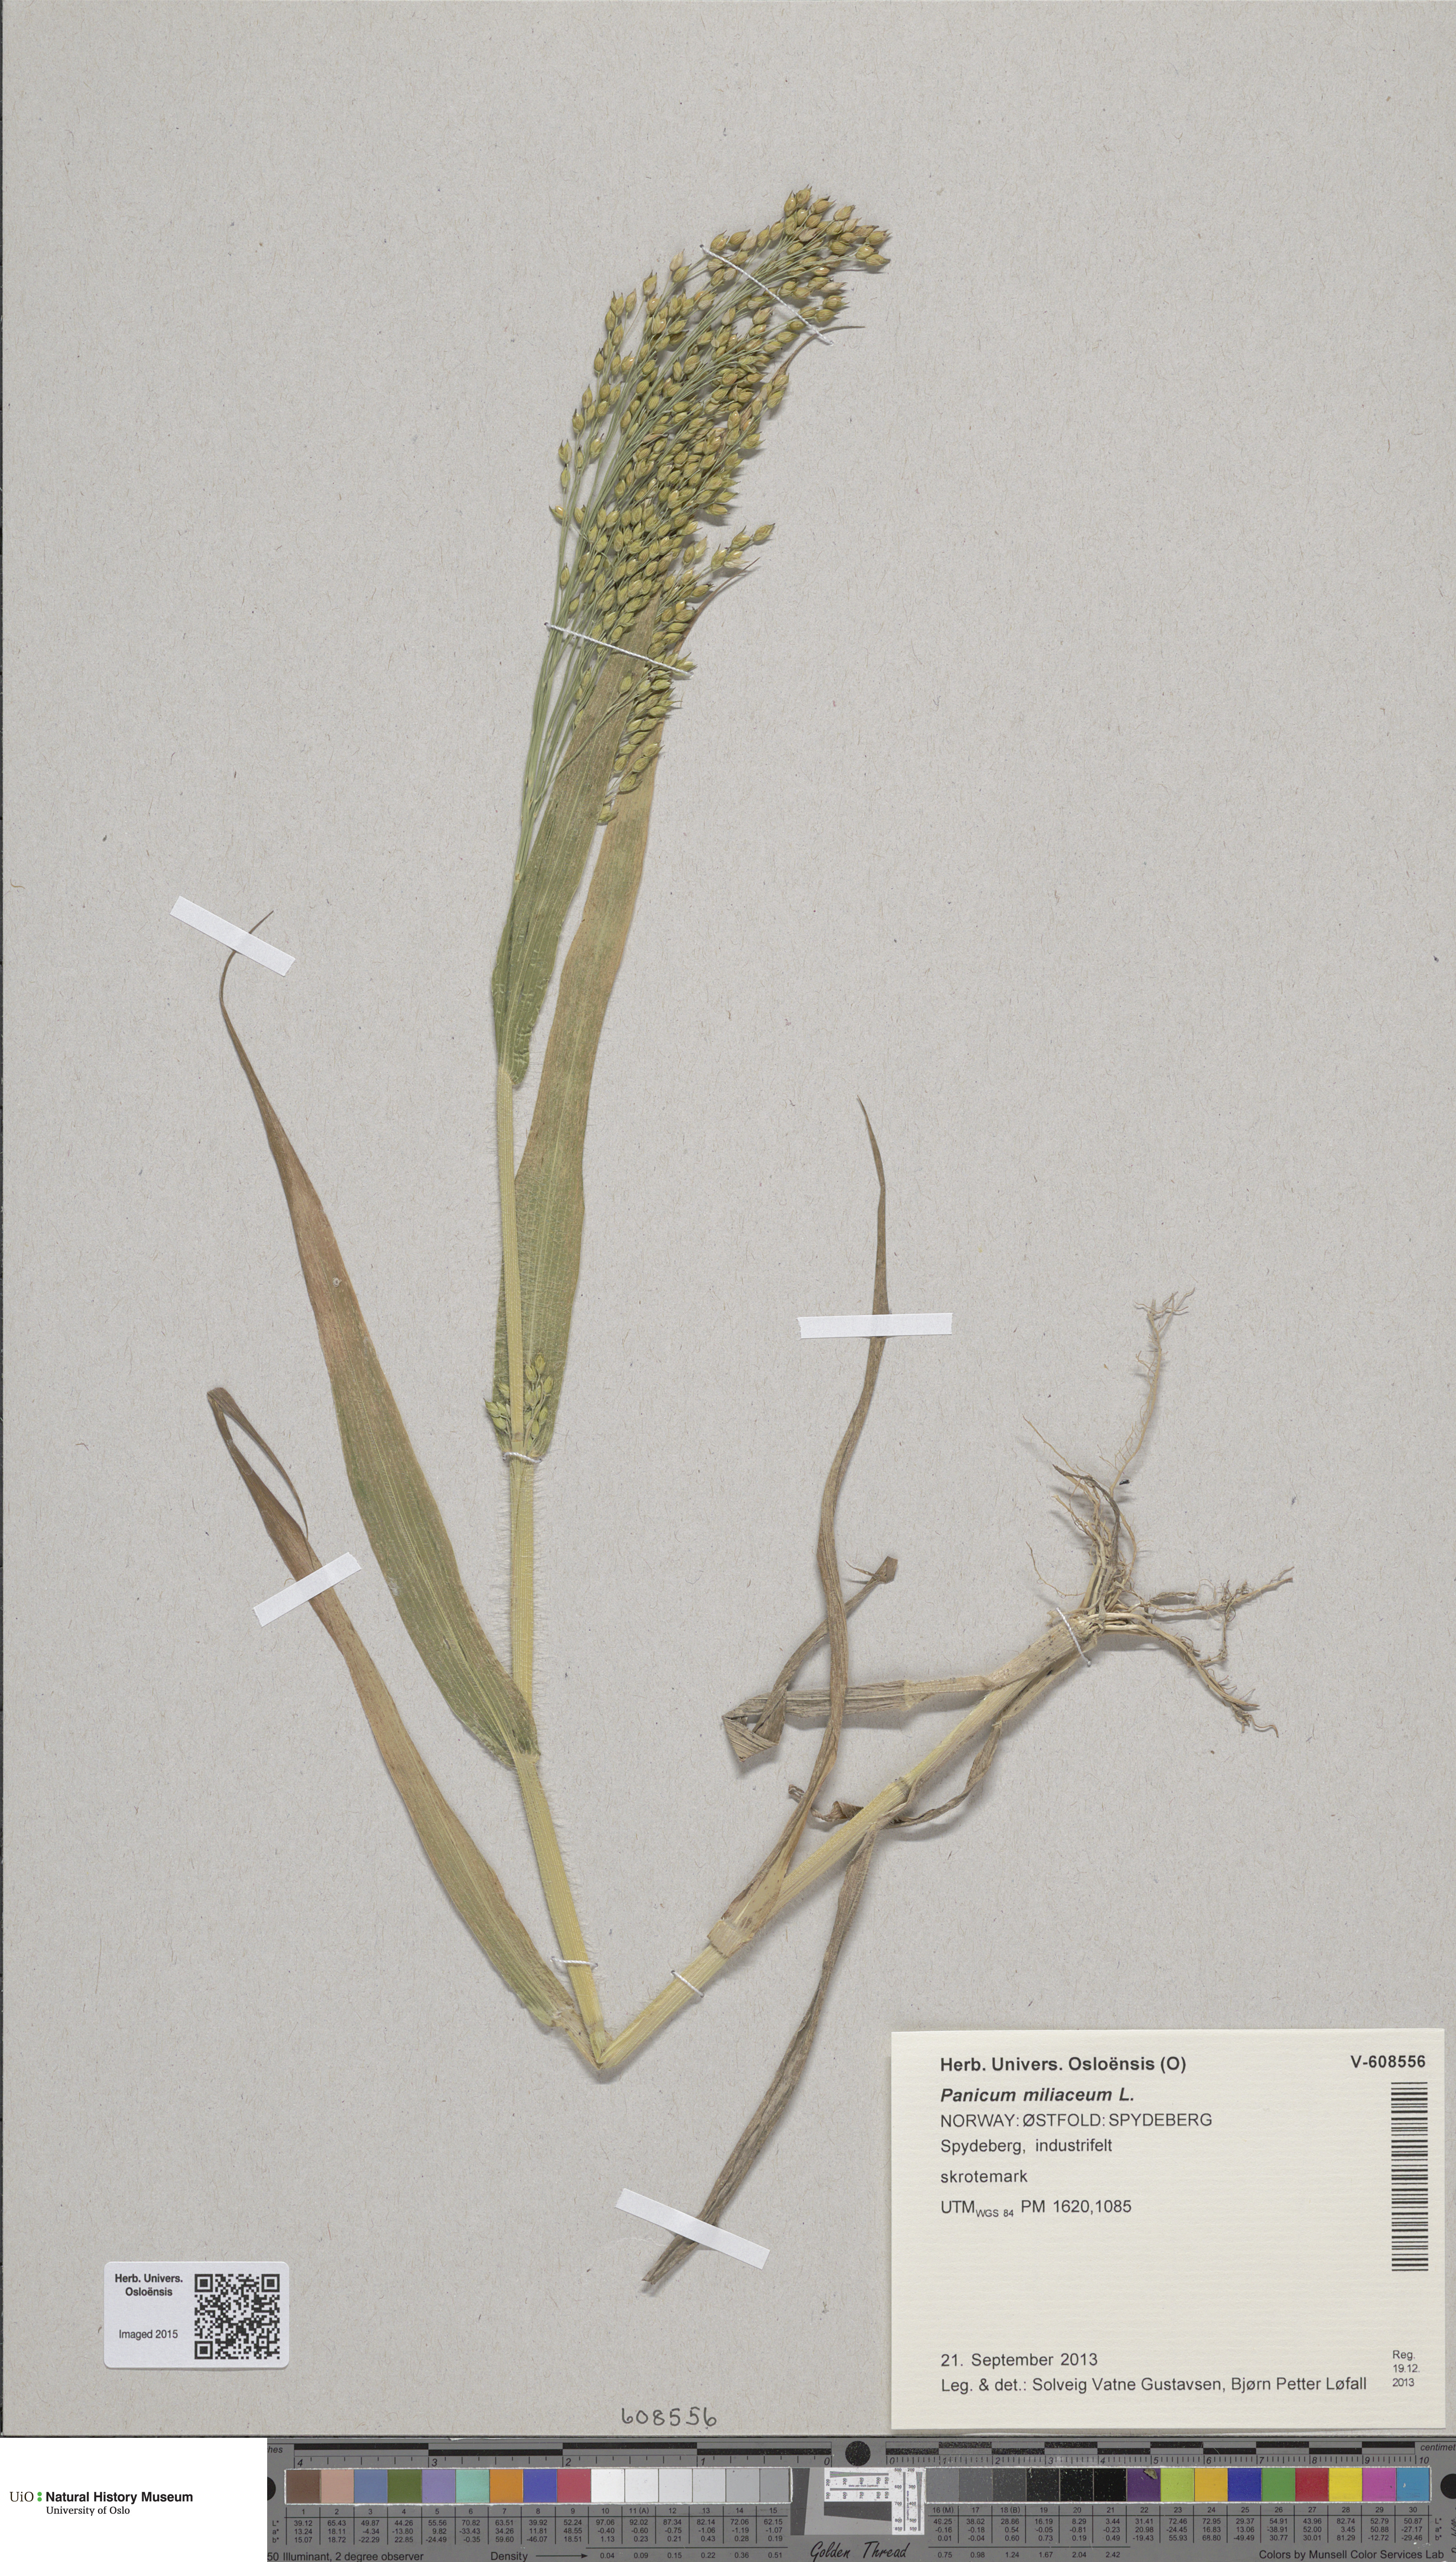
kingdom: Plantae
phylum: Tracheophyta
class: Liliopsida
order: Poales
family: Poaceae
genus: Panicum
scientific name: Panicum miliaceum
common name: Common millet
